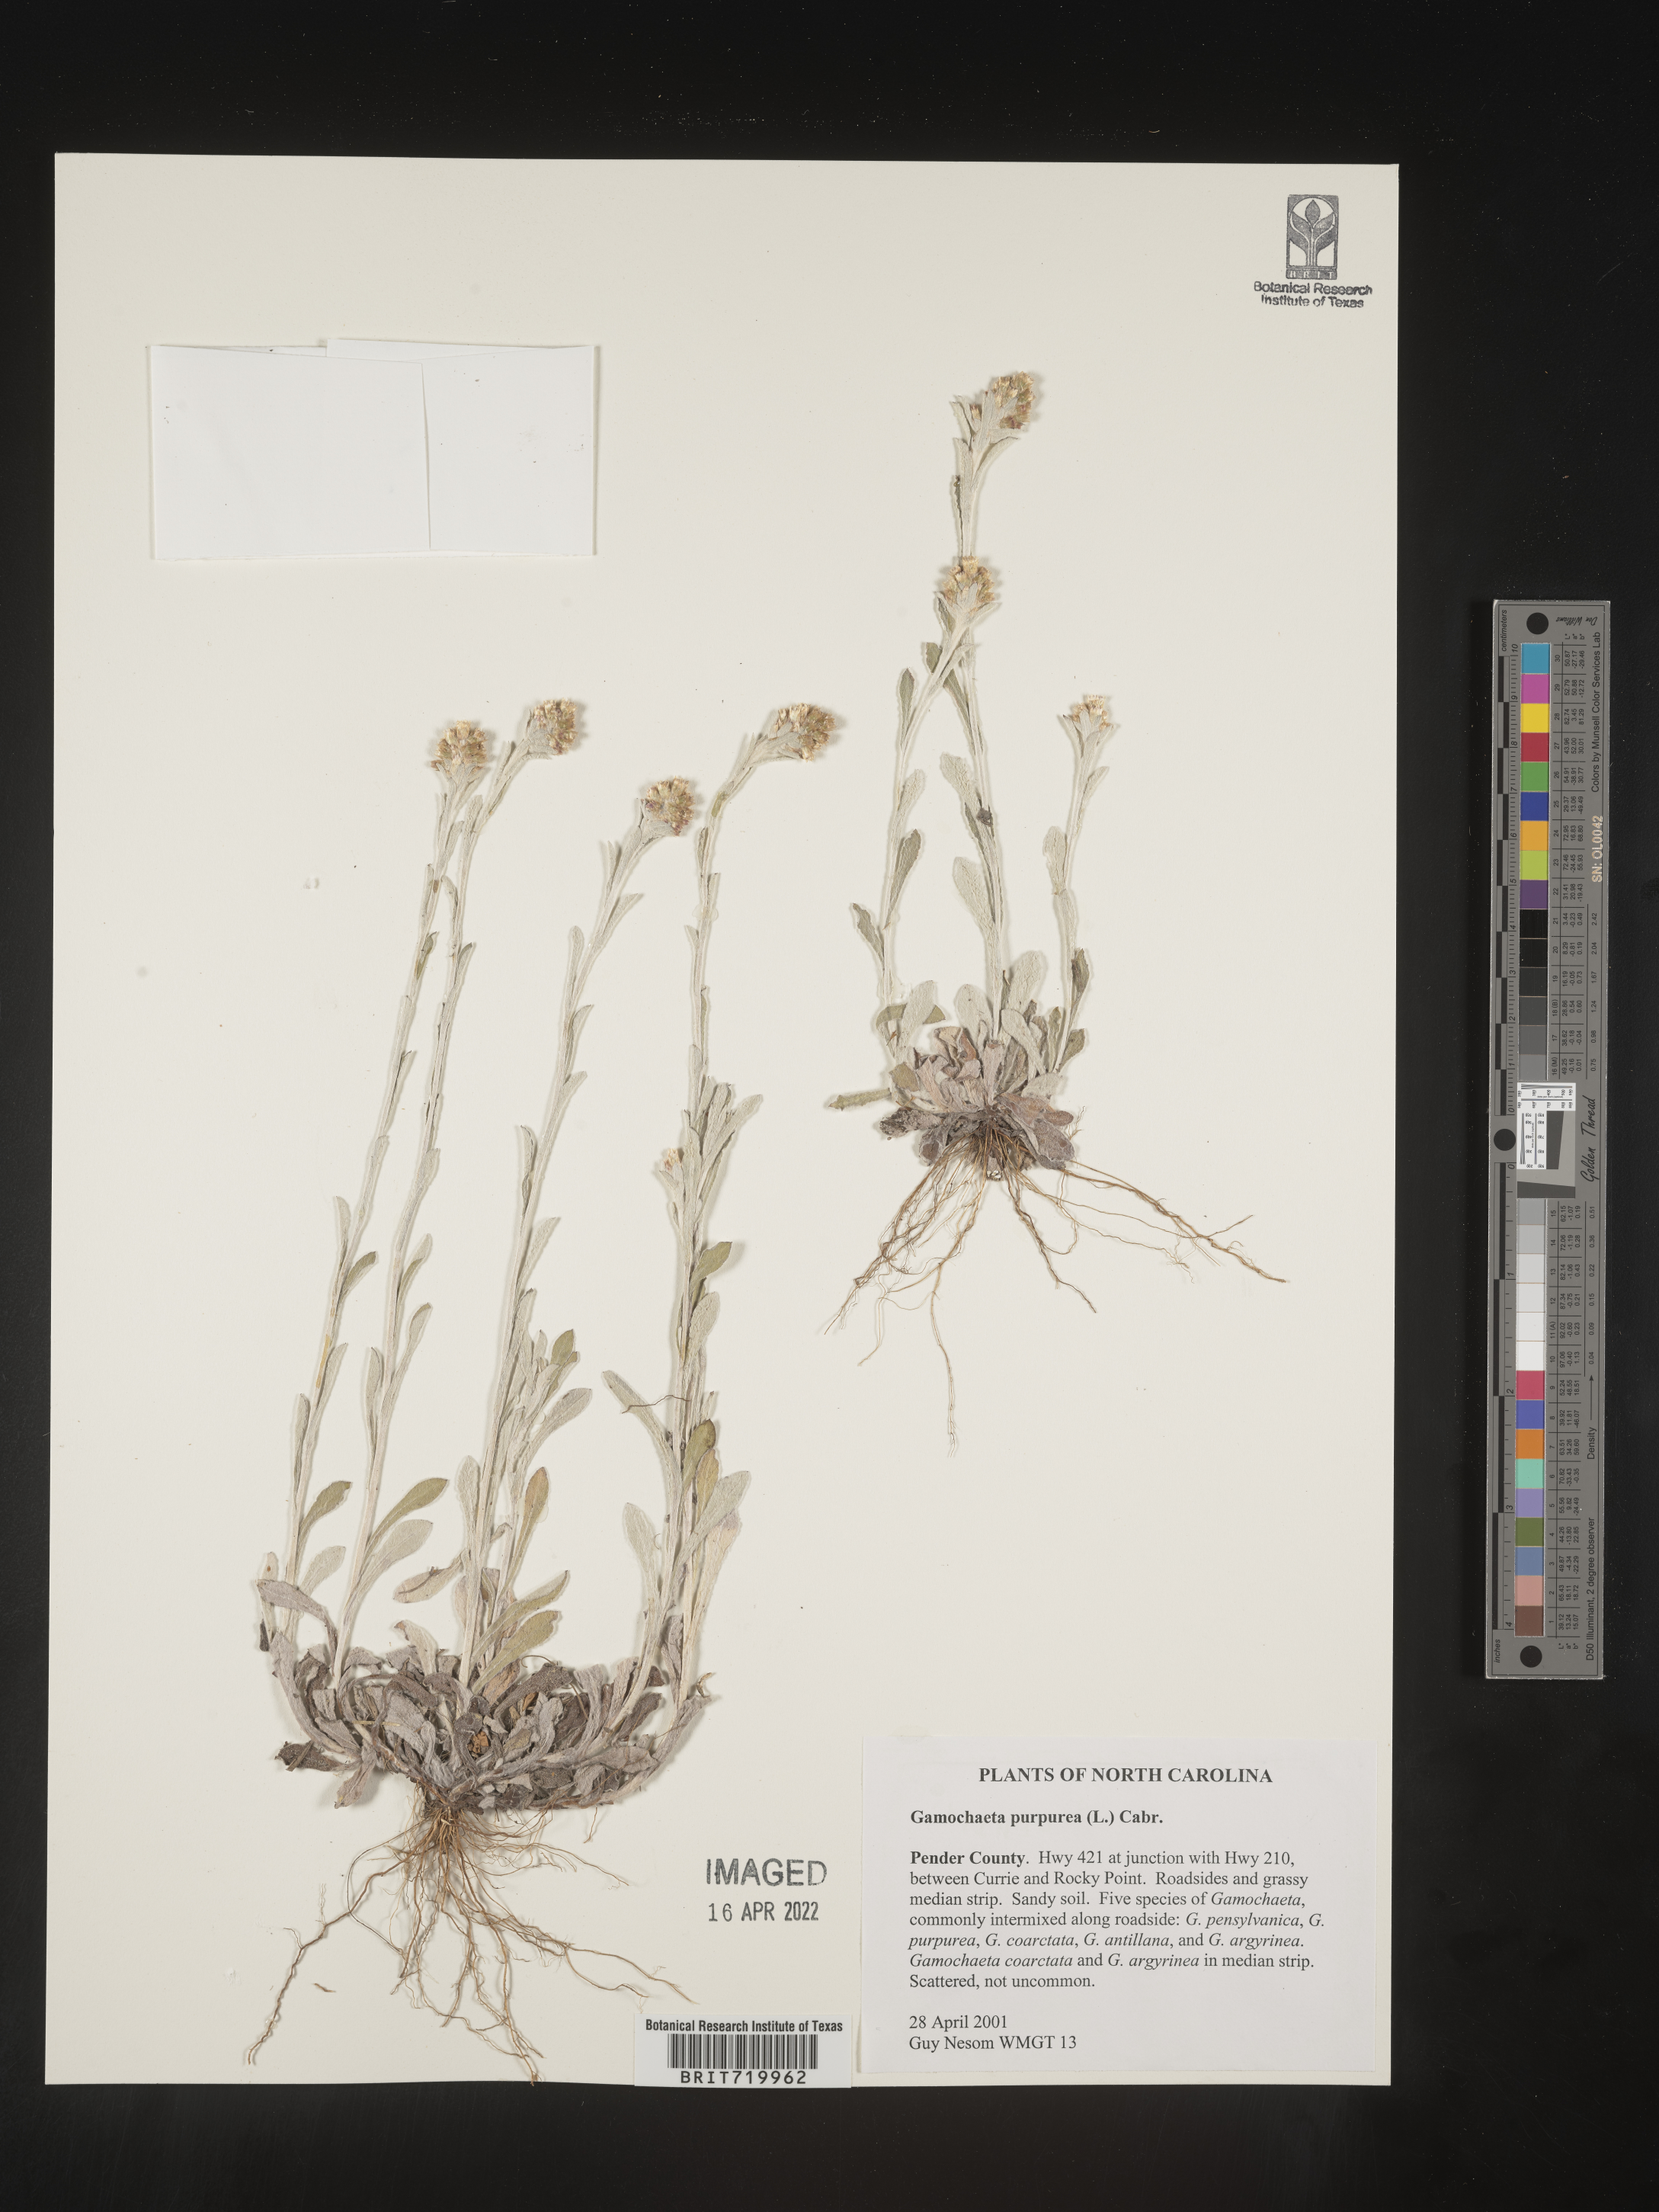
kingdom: Plantae
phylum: Tracheophyta
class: Magnoliopsida
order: Asterales
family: Asteraceae
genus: Gamochaeta
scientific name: Gamochaeta purpurea
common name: Purple cudweed
